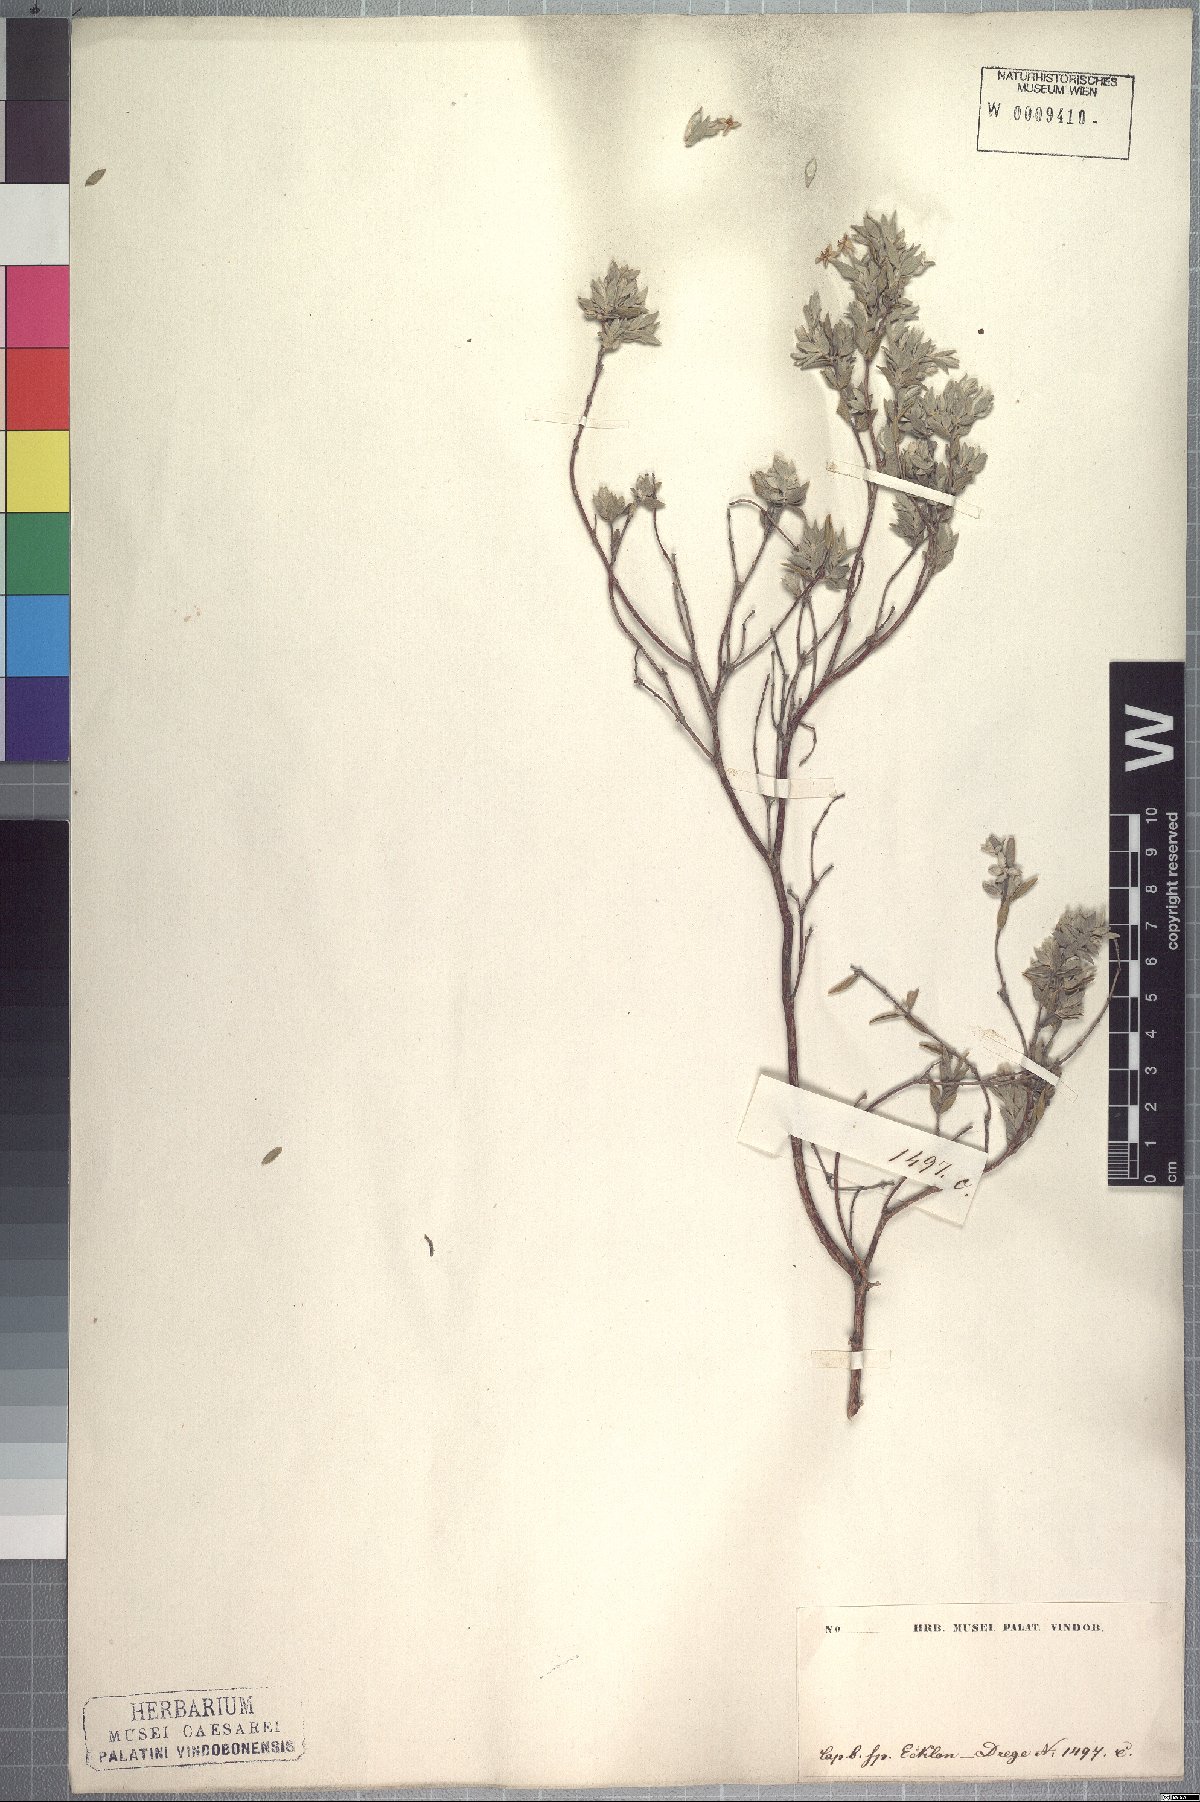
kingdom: Plantae
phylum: Tracheophyta
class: Magnoliopsida
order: Malvales
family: Thymelaeaceae
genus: Gnidia
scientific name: Gnidia imbricata
